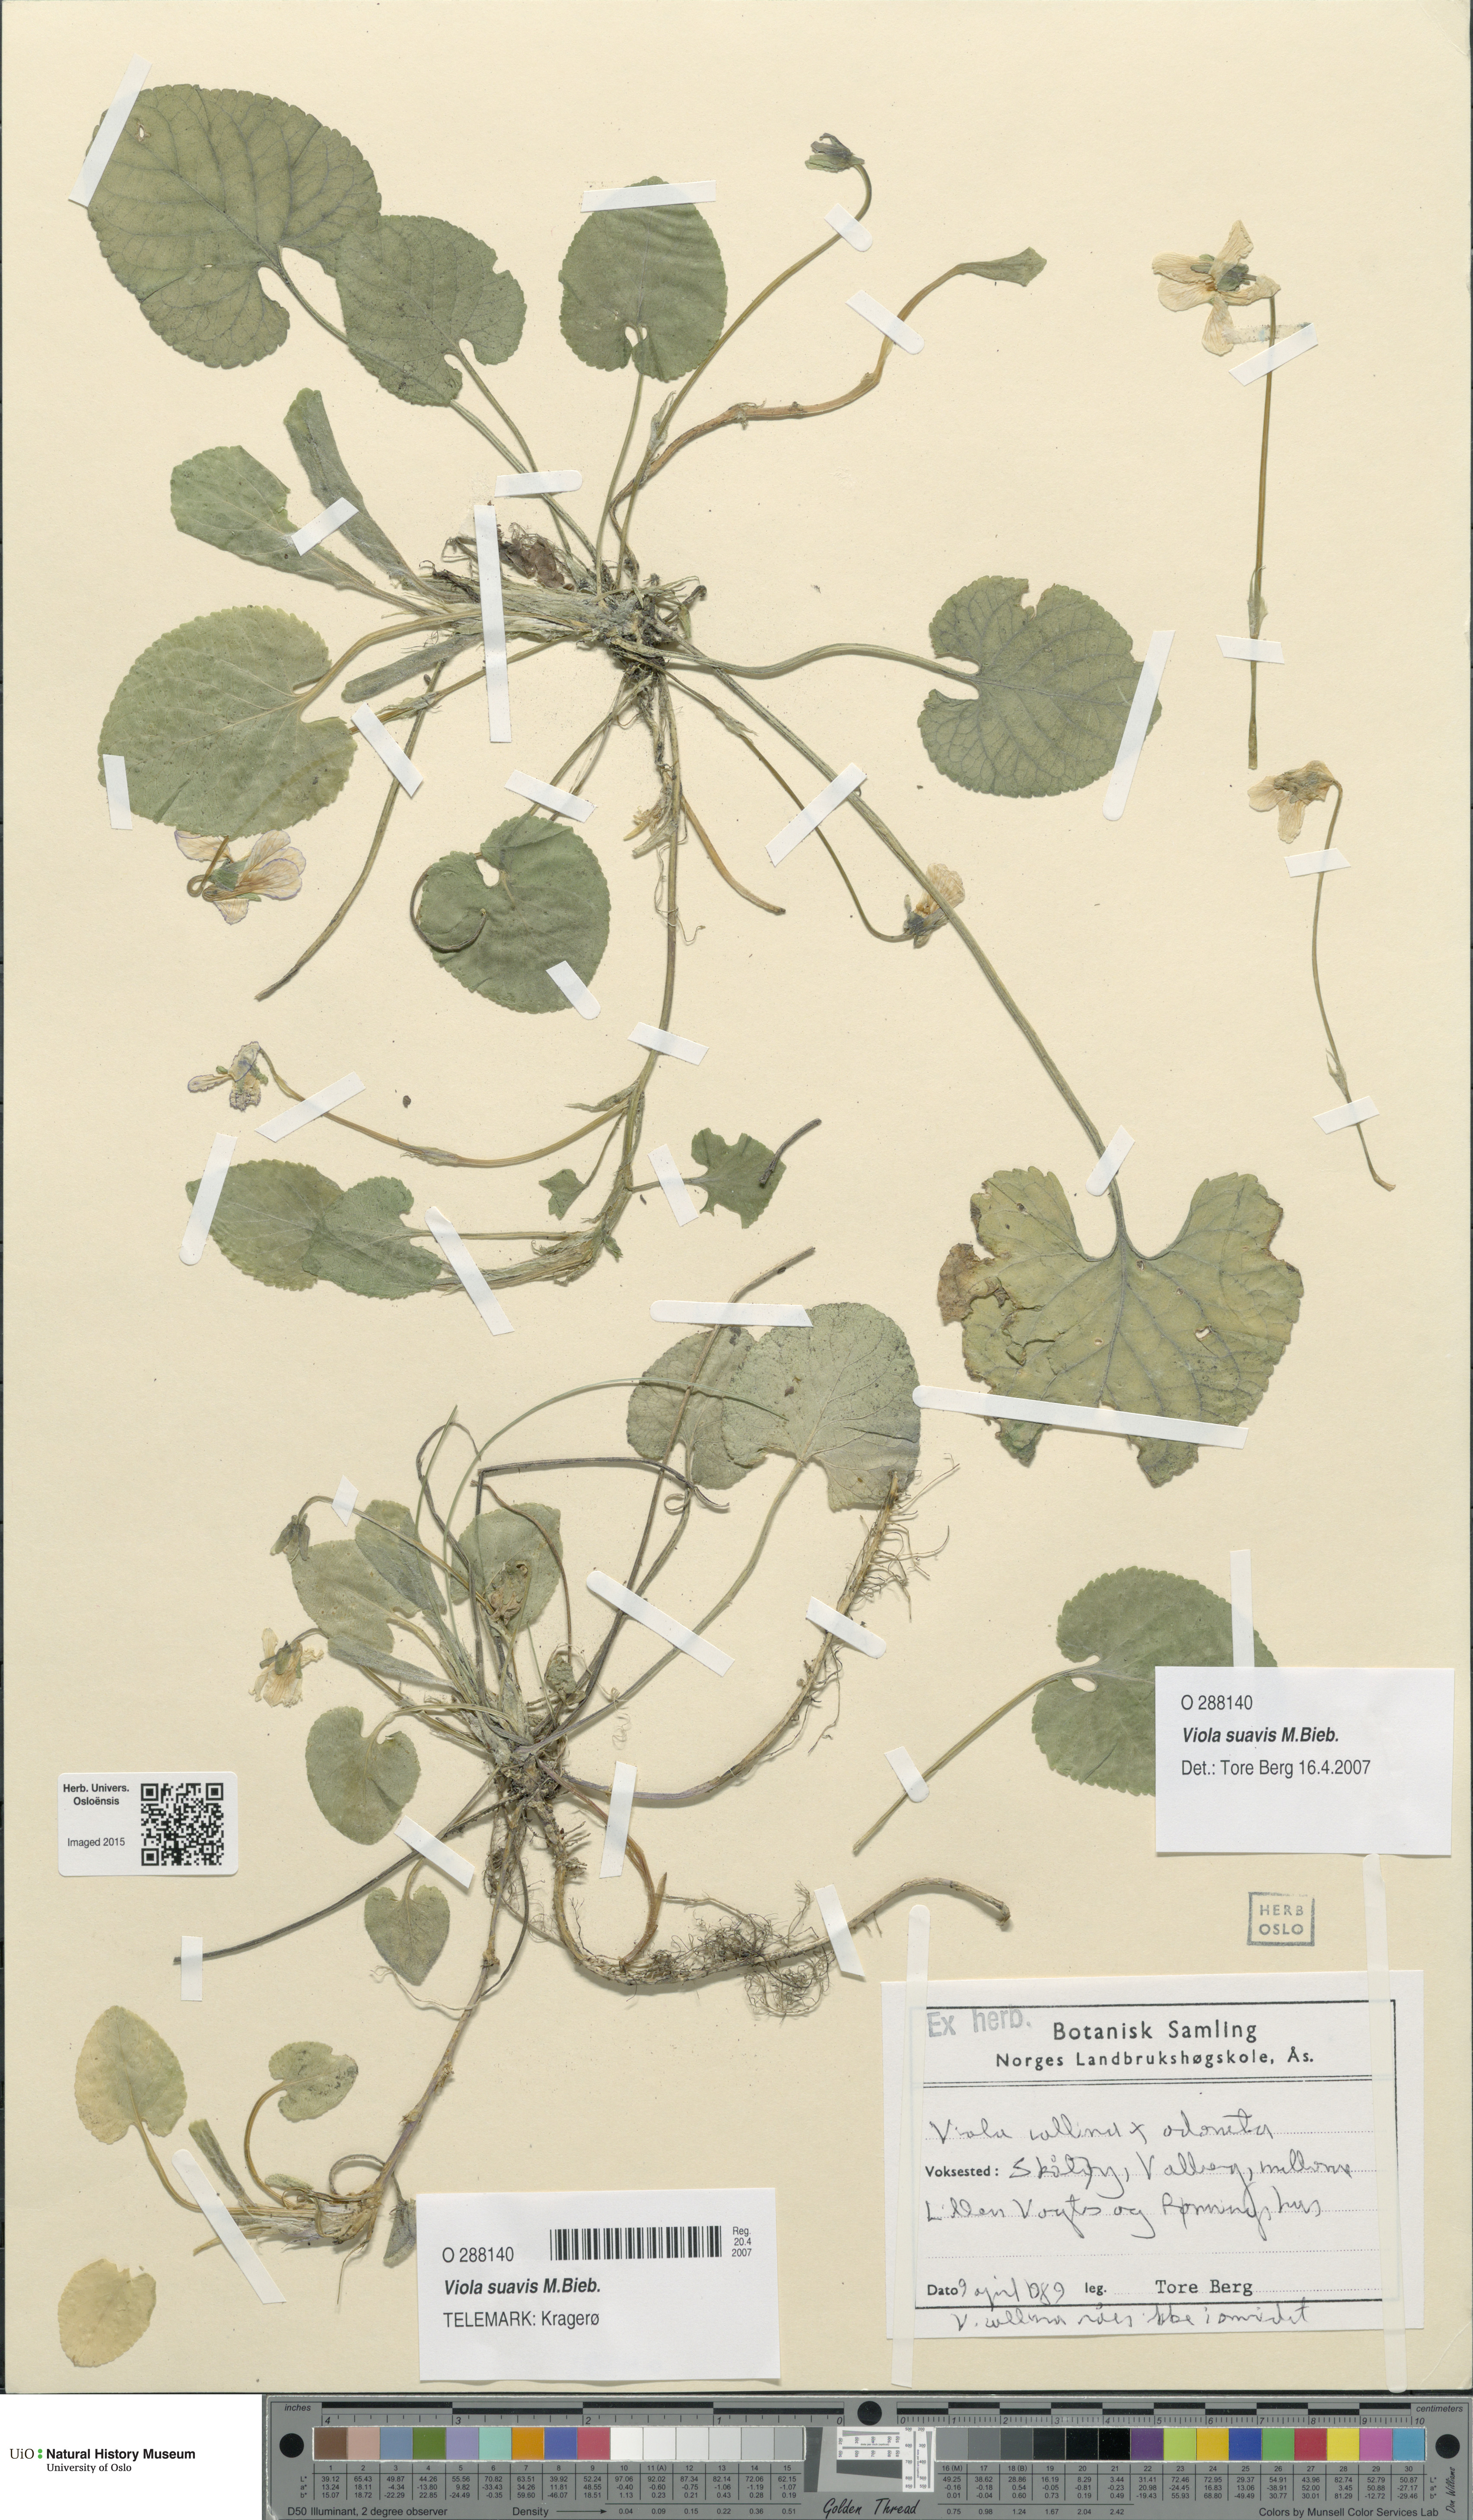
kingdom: Plantae
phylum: Tracheophyta
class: Magnoliopsida
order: Malpighiales
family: Violaceae
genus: Viola
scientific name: Viola suavis
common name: Russian violet
